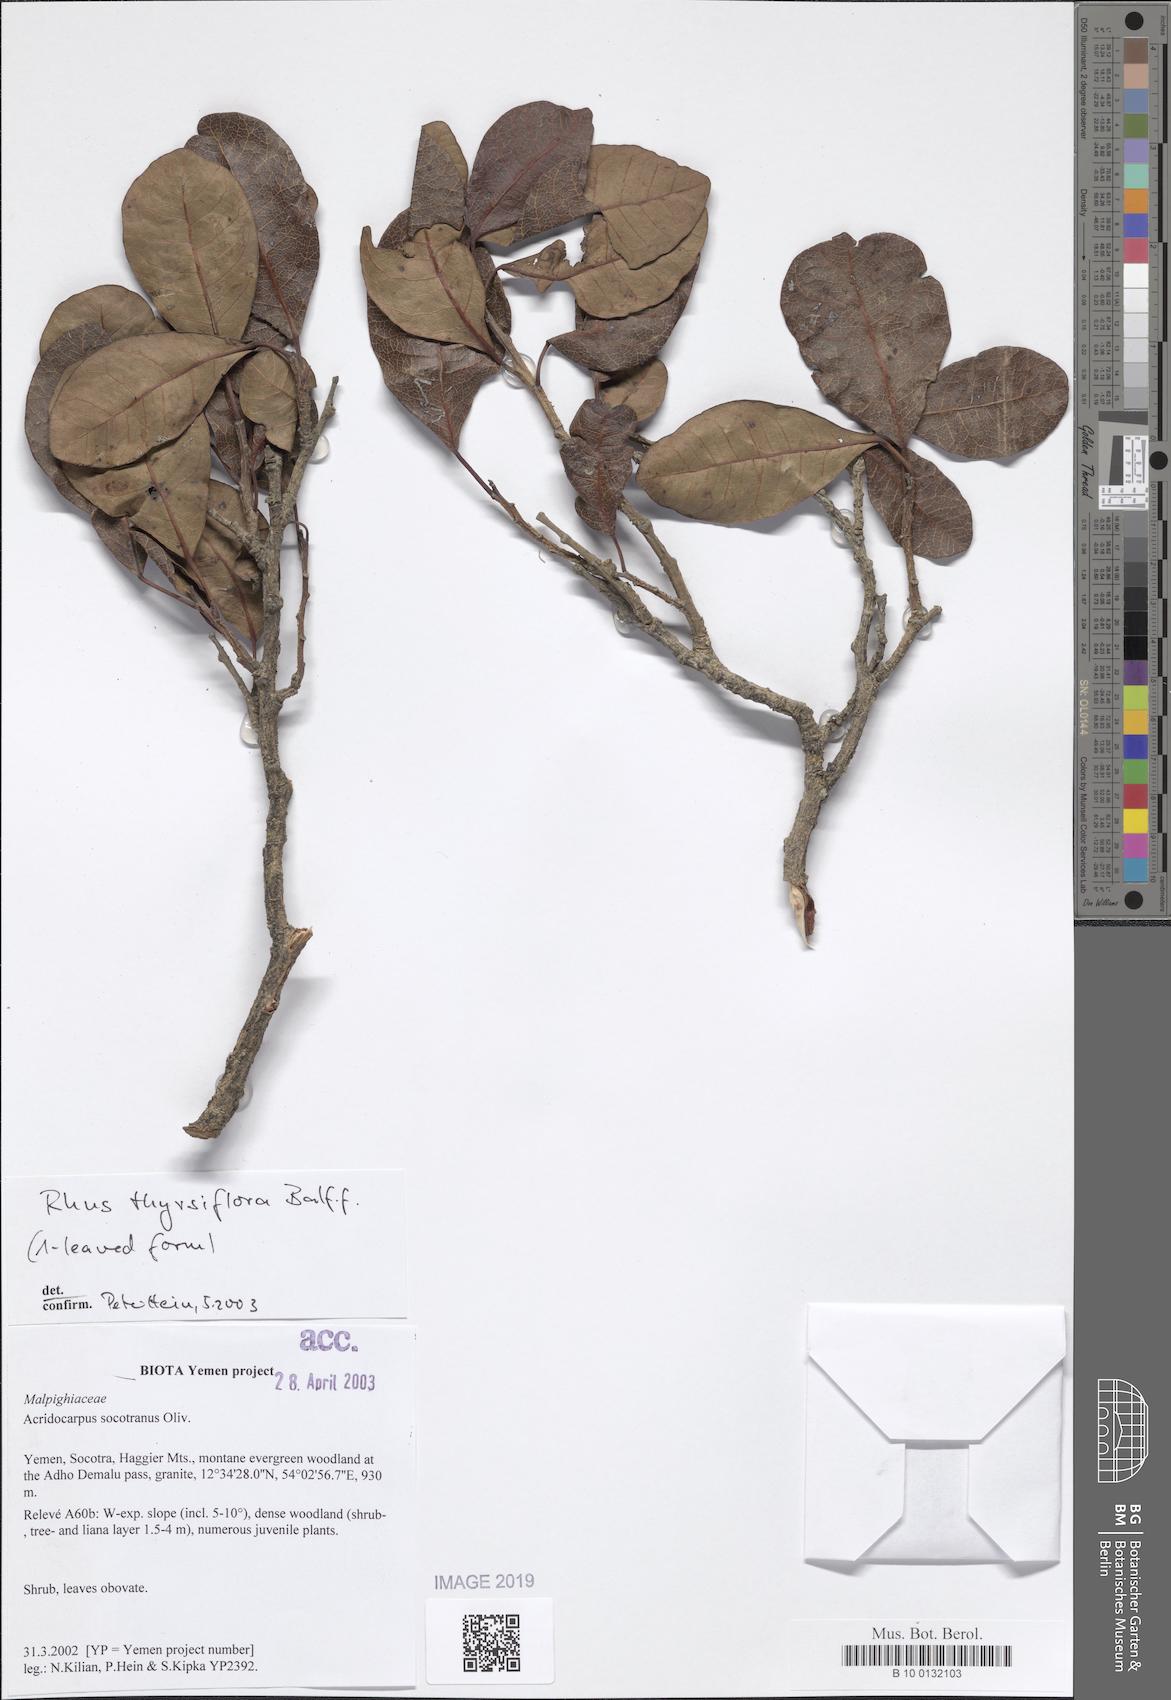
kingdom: Plantae
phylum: Tracheophyta
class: Magnoliopsida
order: Sapindales
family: Anacardiaceae
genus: Searsia
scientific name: Searsia thyrsiflora
